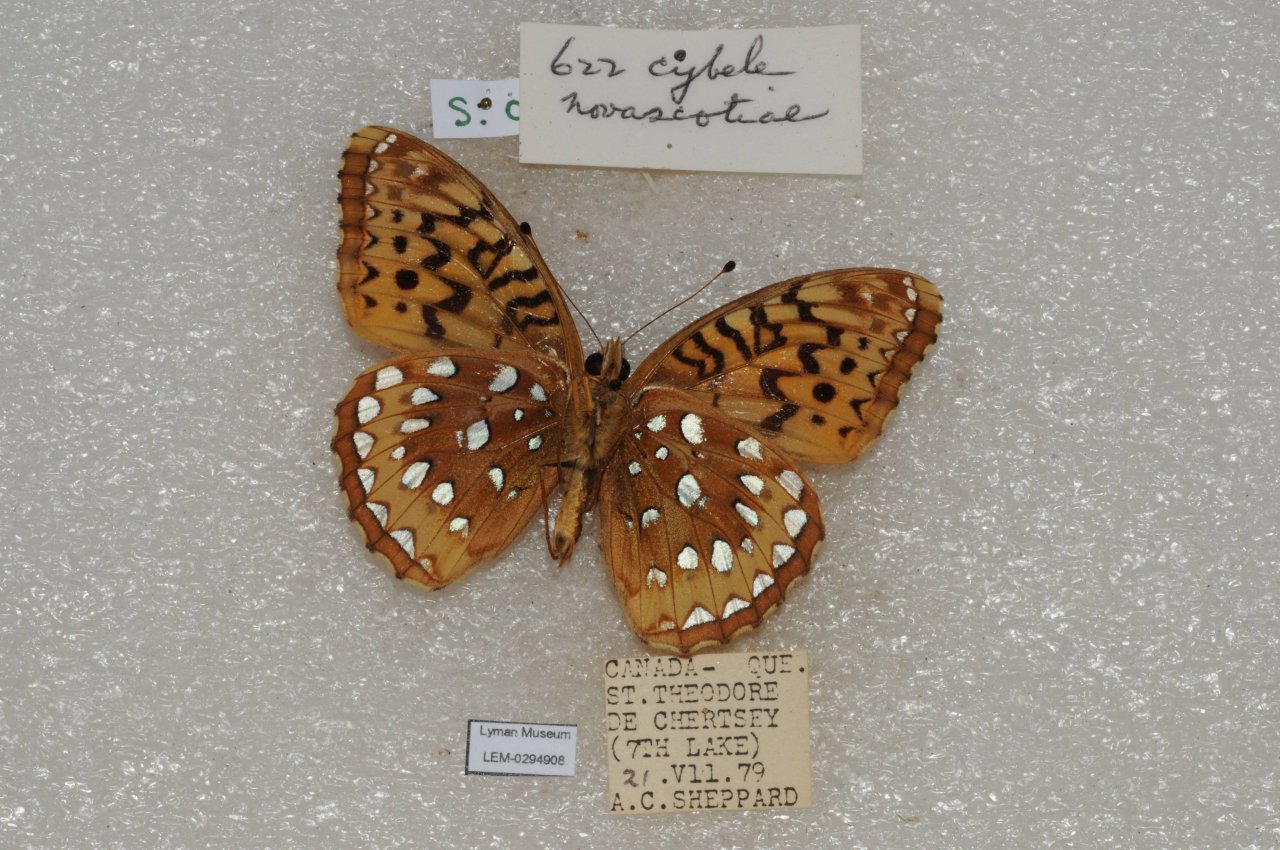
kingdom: Animalia
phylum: Arthropoda
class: Insecta
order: Lepidoptera
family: Nymphalidae
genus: Speyeria
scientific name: Speyeria cybele
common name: Great Spangled Fritillary
